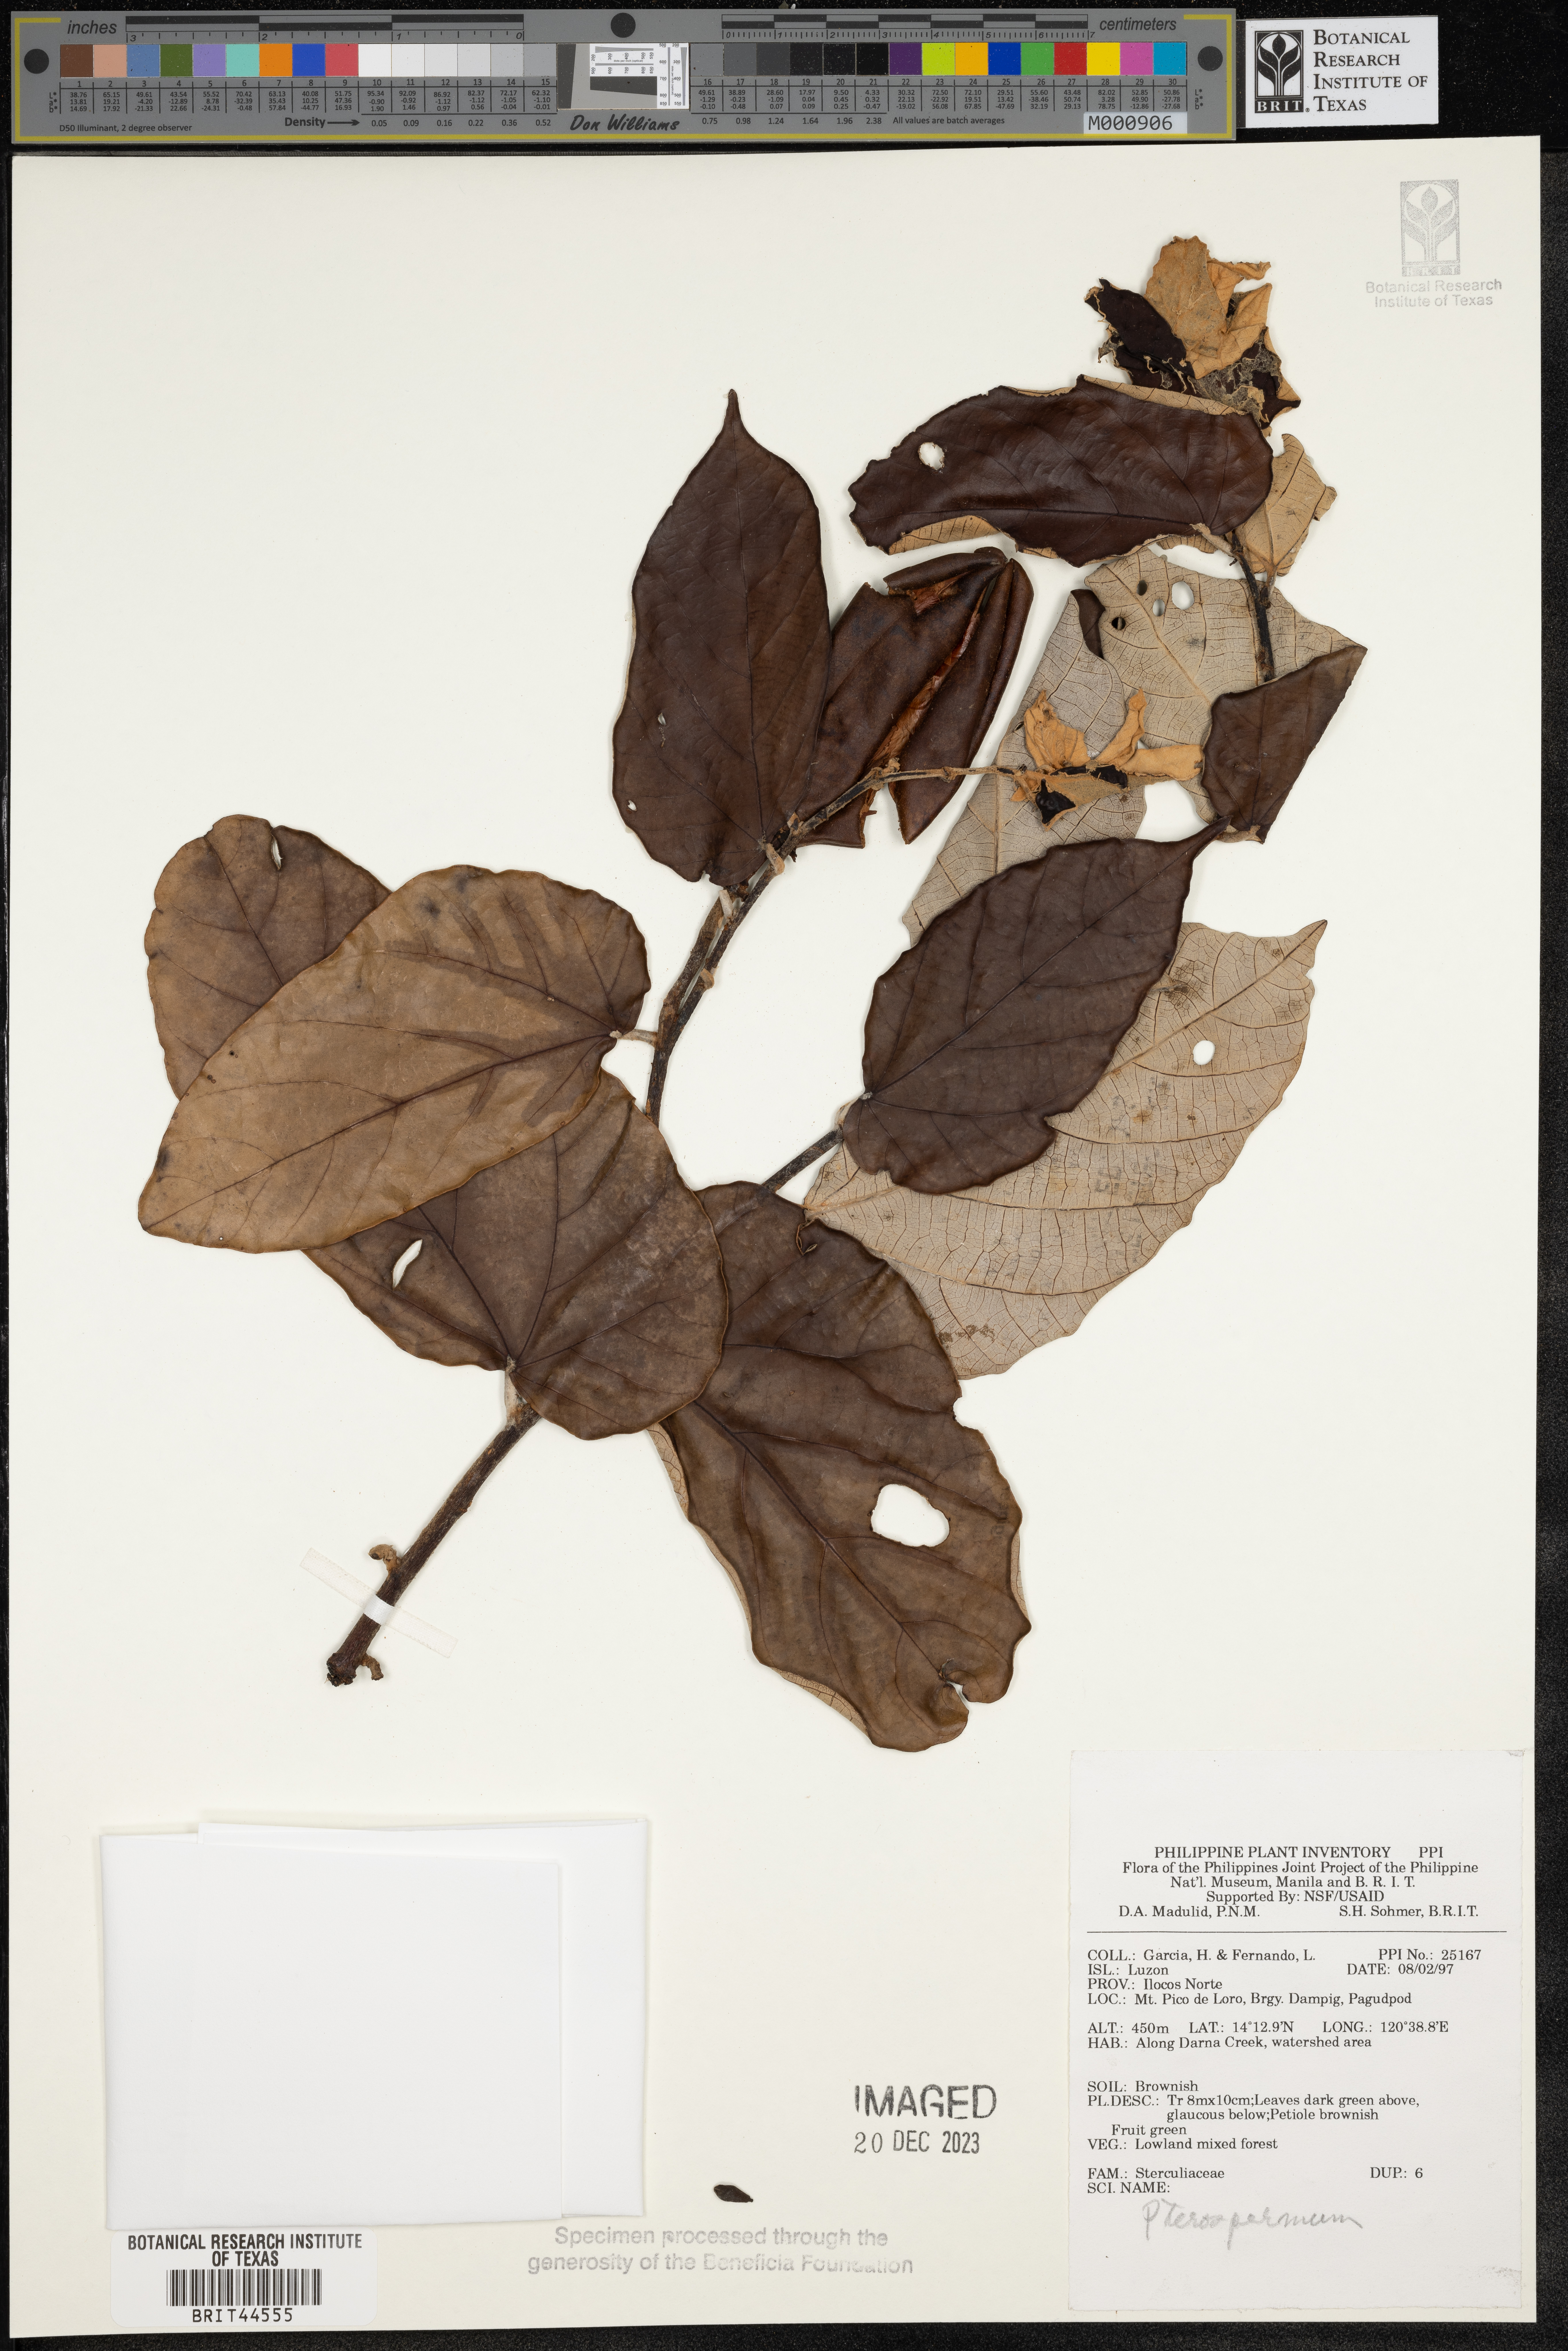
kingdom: Plantae
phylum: Tracheophyta
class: Magnoliopsida
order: Malvales
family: Malvaceae
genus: Pterospermum
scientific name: Pterospermum
